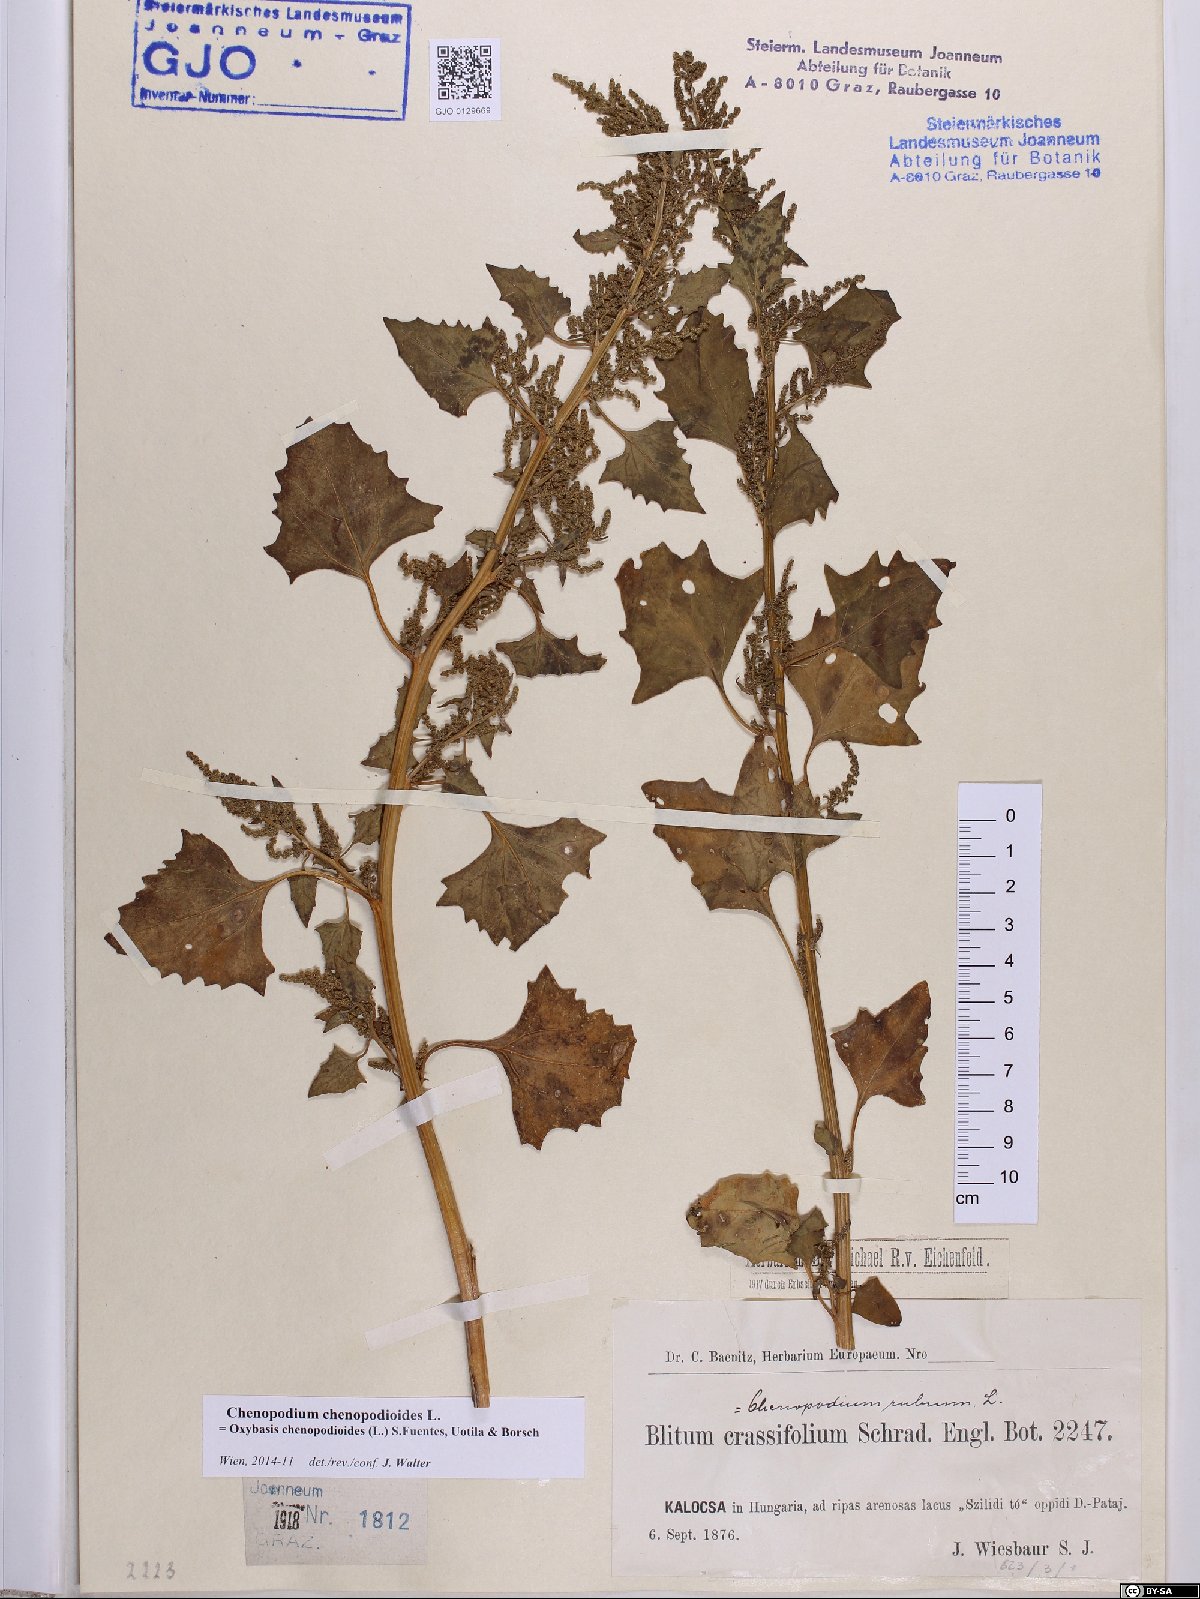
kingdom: Plantae
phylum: Tracheophyta
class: Magnoliopsida
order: Caryophyllales
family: Amaranthaceae
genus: Oxybasis
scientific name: Oxybasis chenopodioides
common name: Saltmarsh goosefoot
